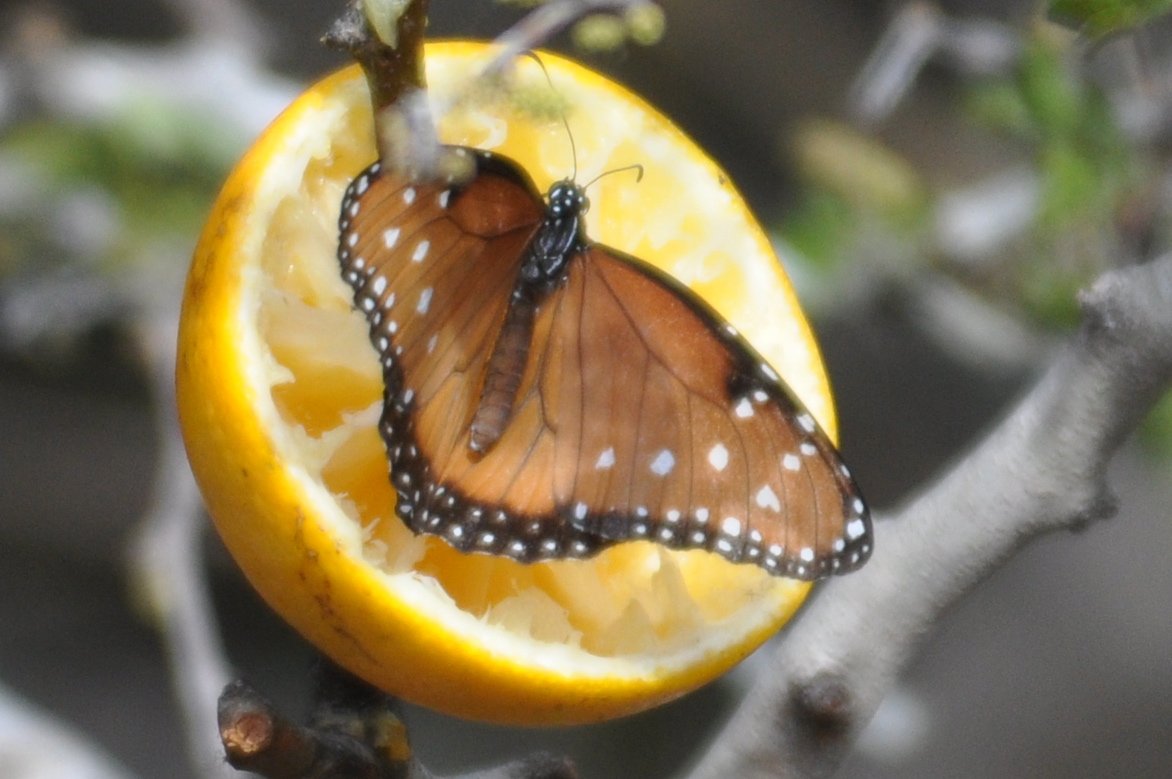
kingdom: Animalia
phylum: Arthropoda
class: Insecta
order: Lepidoptera
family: Nymphalidae
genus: Danaus
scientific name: Danaus gilippus
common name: Queen
